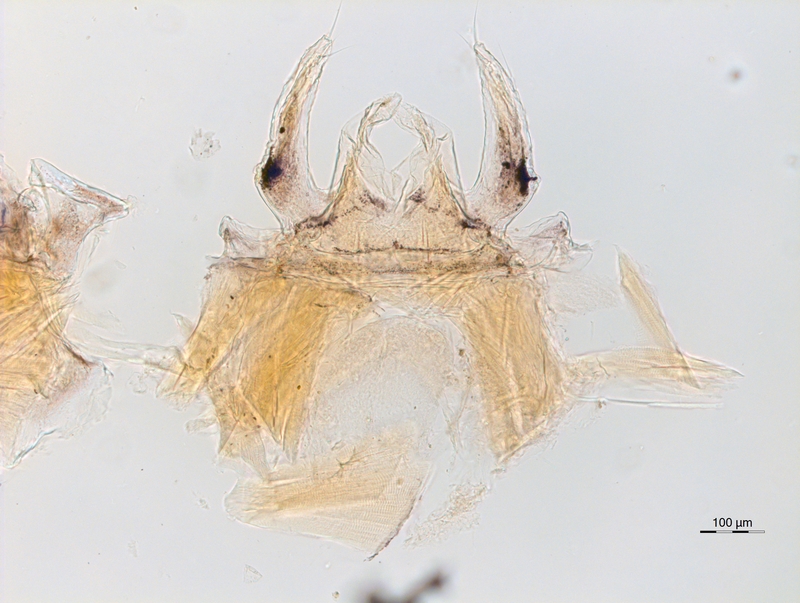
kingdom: Animalia
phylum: Arthropoda
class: Diplopoda
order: Chordeumatida
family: Anthroleucosomatidae
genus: Anamastigona
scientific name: Anamastigona hispidula
